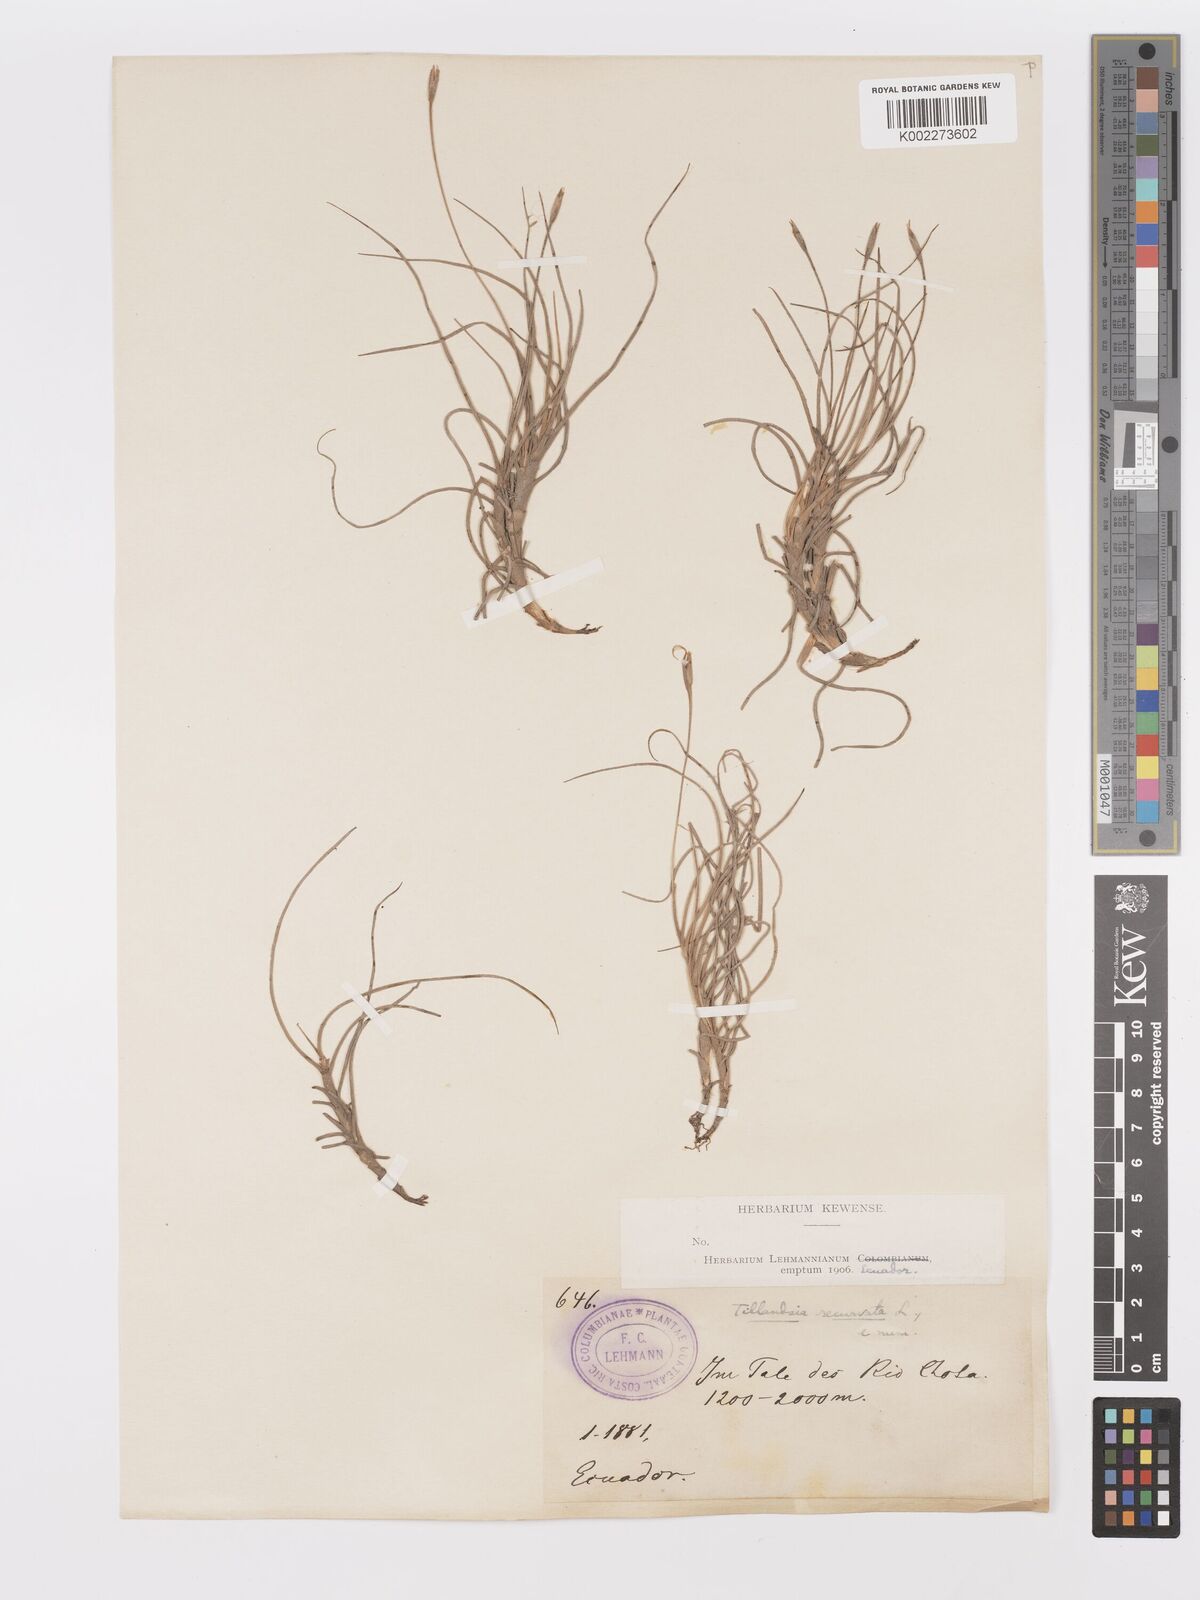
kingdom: Plantae
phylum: Tracheophyta
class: Liliopsida
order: Poales
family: Bromeliaceae
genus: Tillandsia
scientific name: Tillandsia recurvata
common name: Small ballmoss
